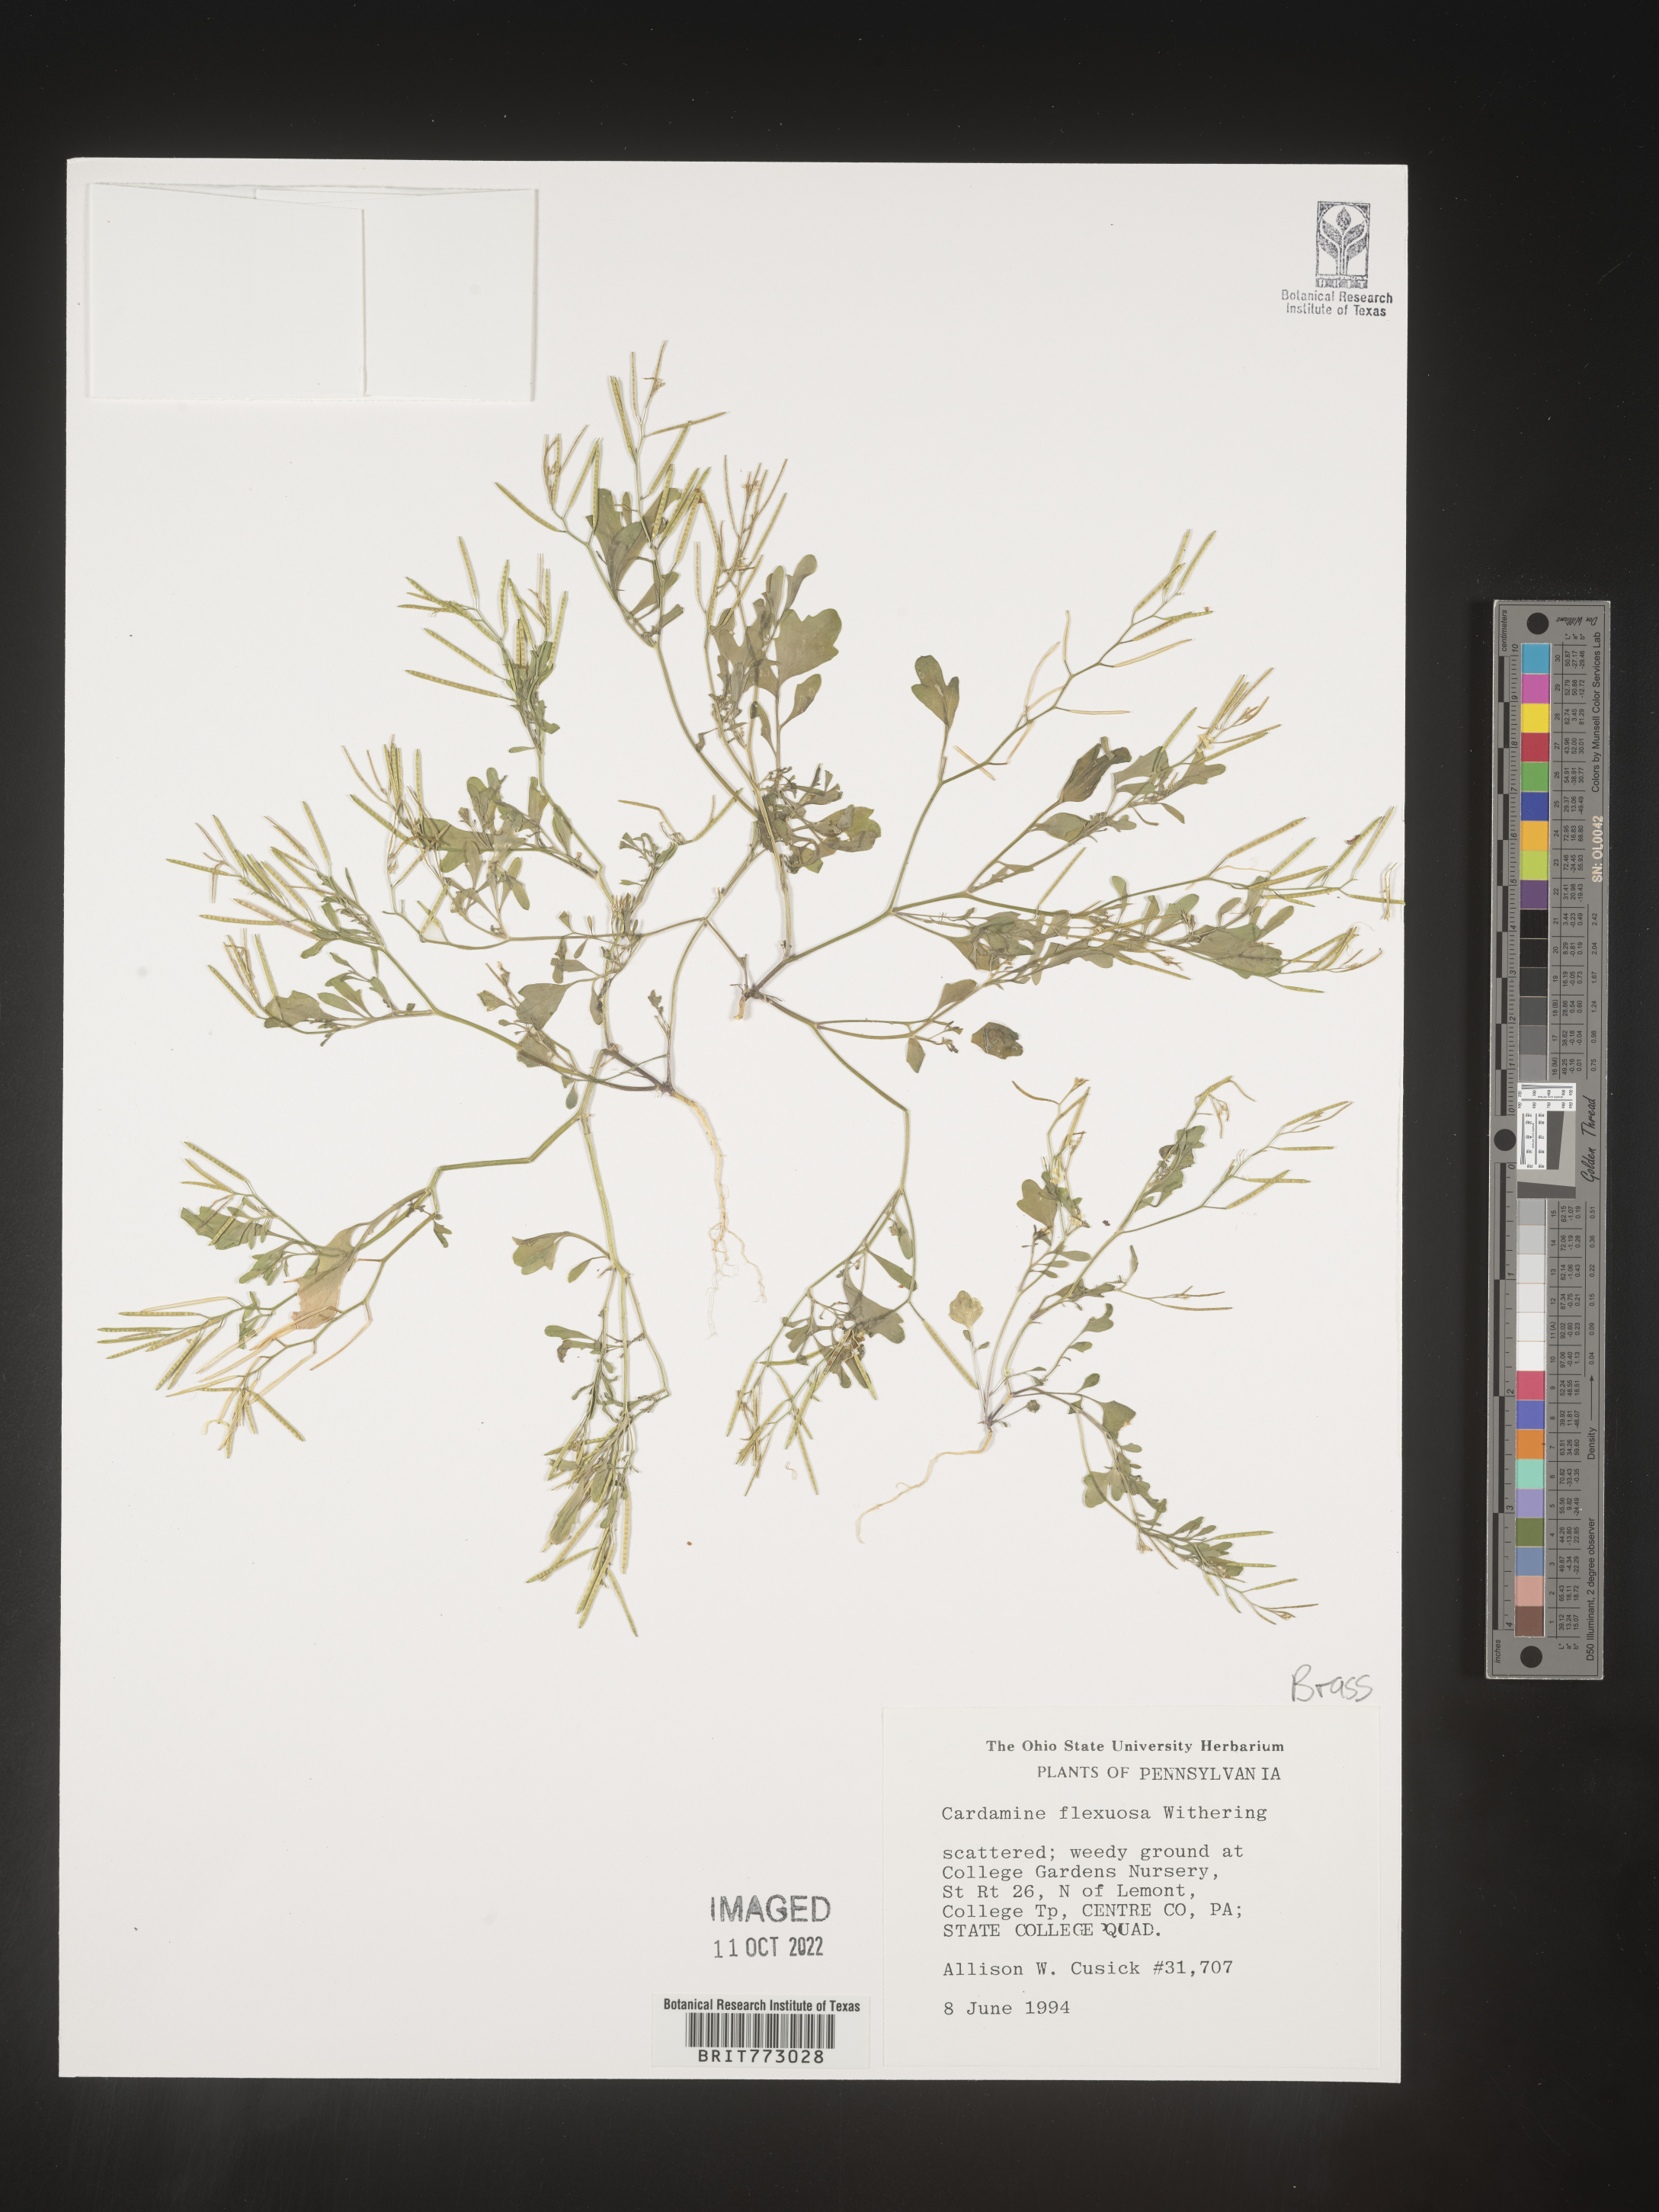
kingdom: Plantae
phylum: Tracheophyta
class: Magnoliopsida
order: Brassicales
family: Brassicaceae
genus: Cardamine
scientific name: Cardamine
